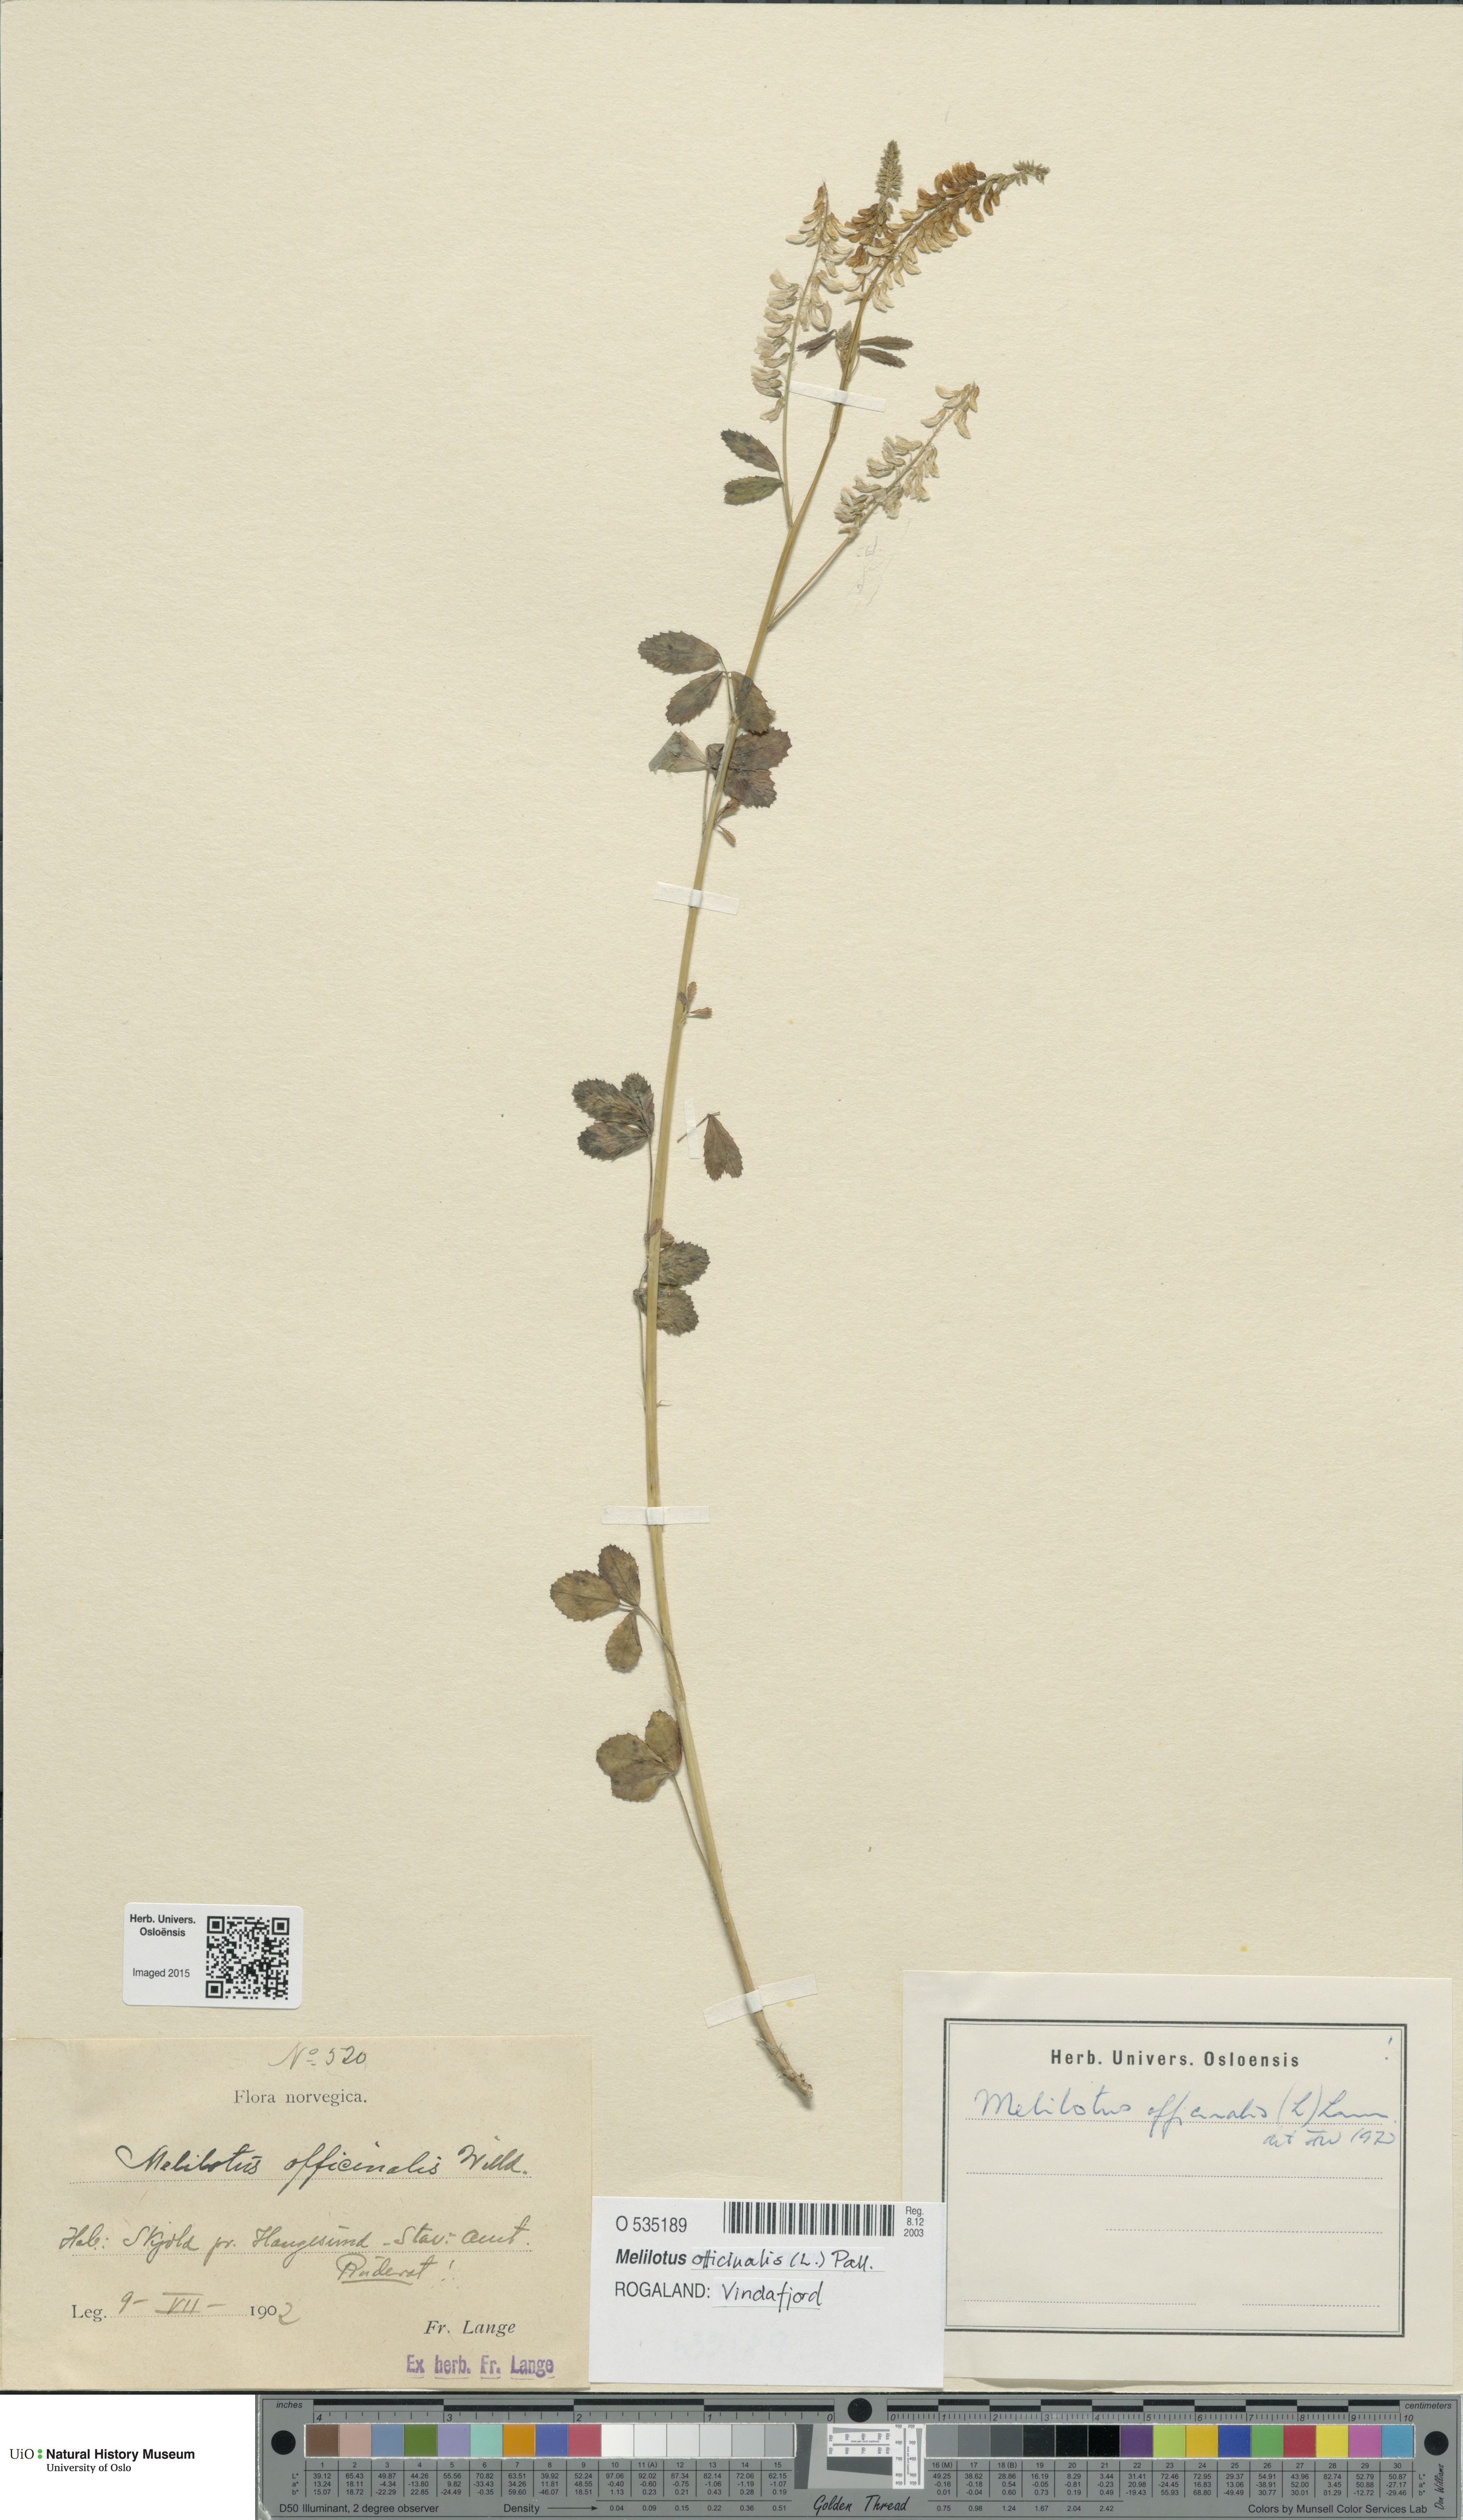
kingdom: Plantae
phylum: Tracheophyta
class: Magnoliopsida
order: Fabales
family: Fabaceae
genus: Melilotus
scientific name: Melilotus officinalis
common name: Sweetclover
